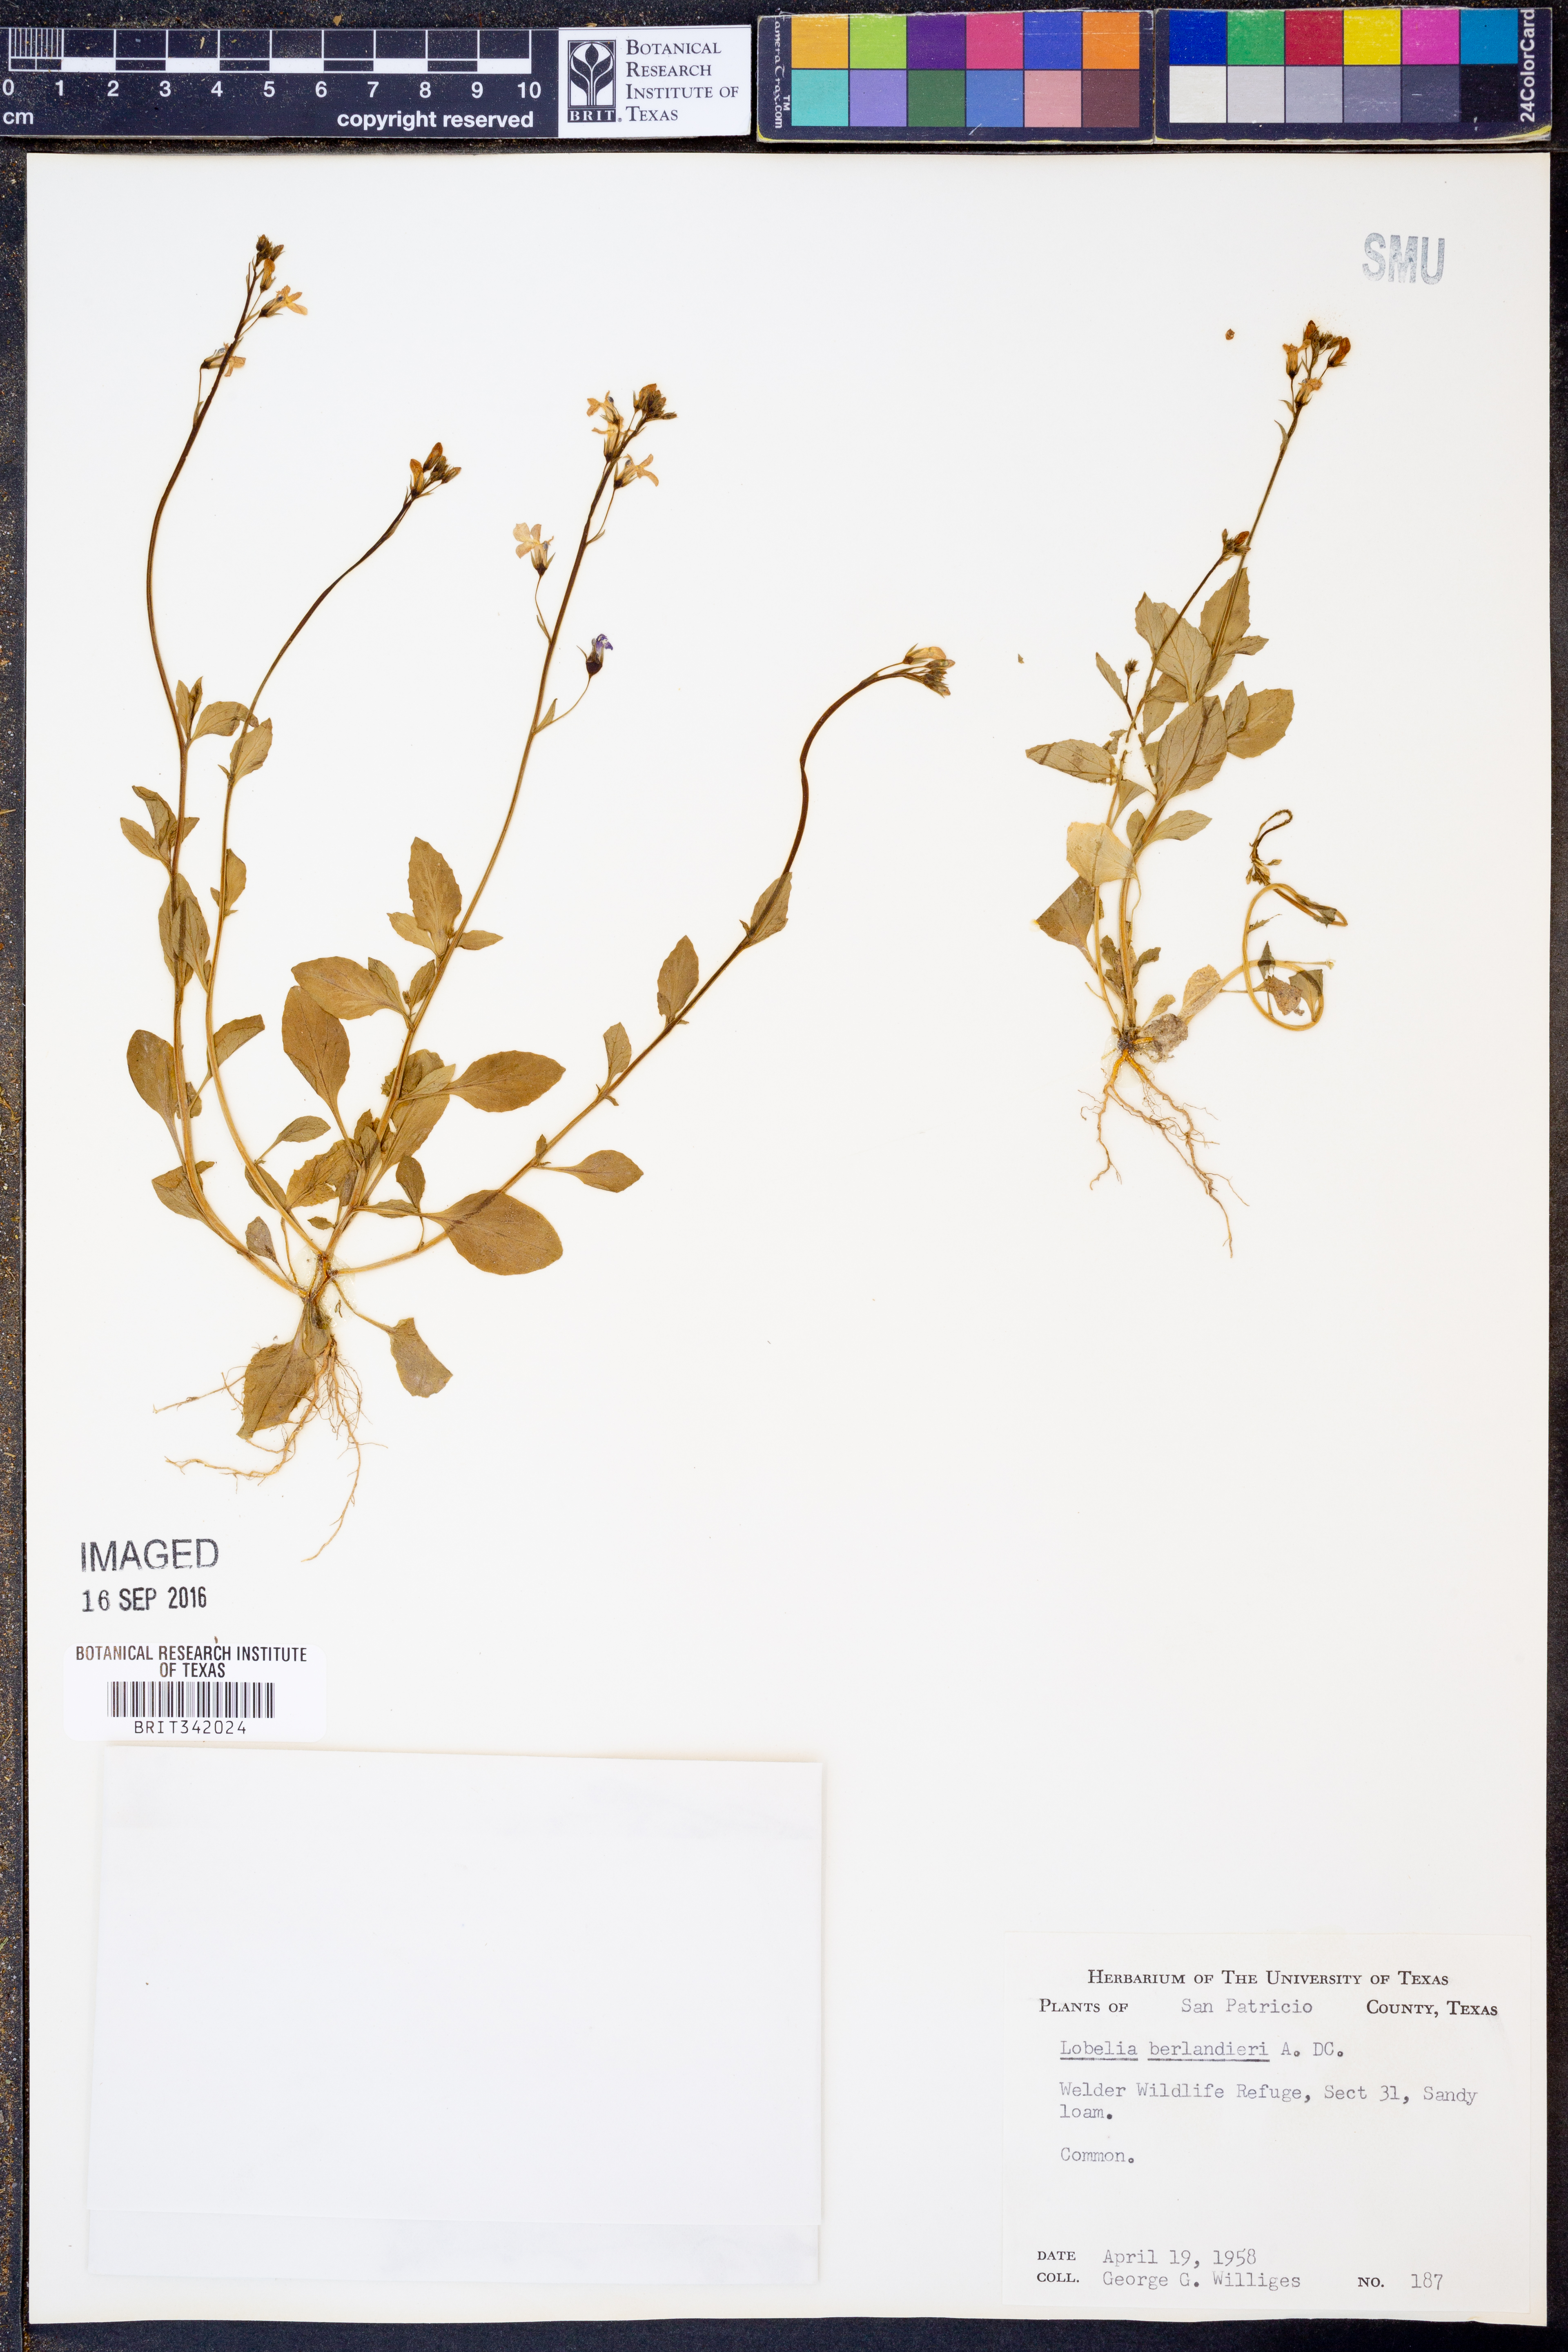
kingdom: Plantae
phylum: Tracheophyta
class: Magnoliopsida
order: Asterales
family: Campanulaceae
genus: Lobelia
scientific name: Lobelia berlandieri
